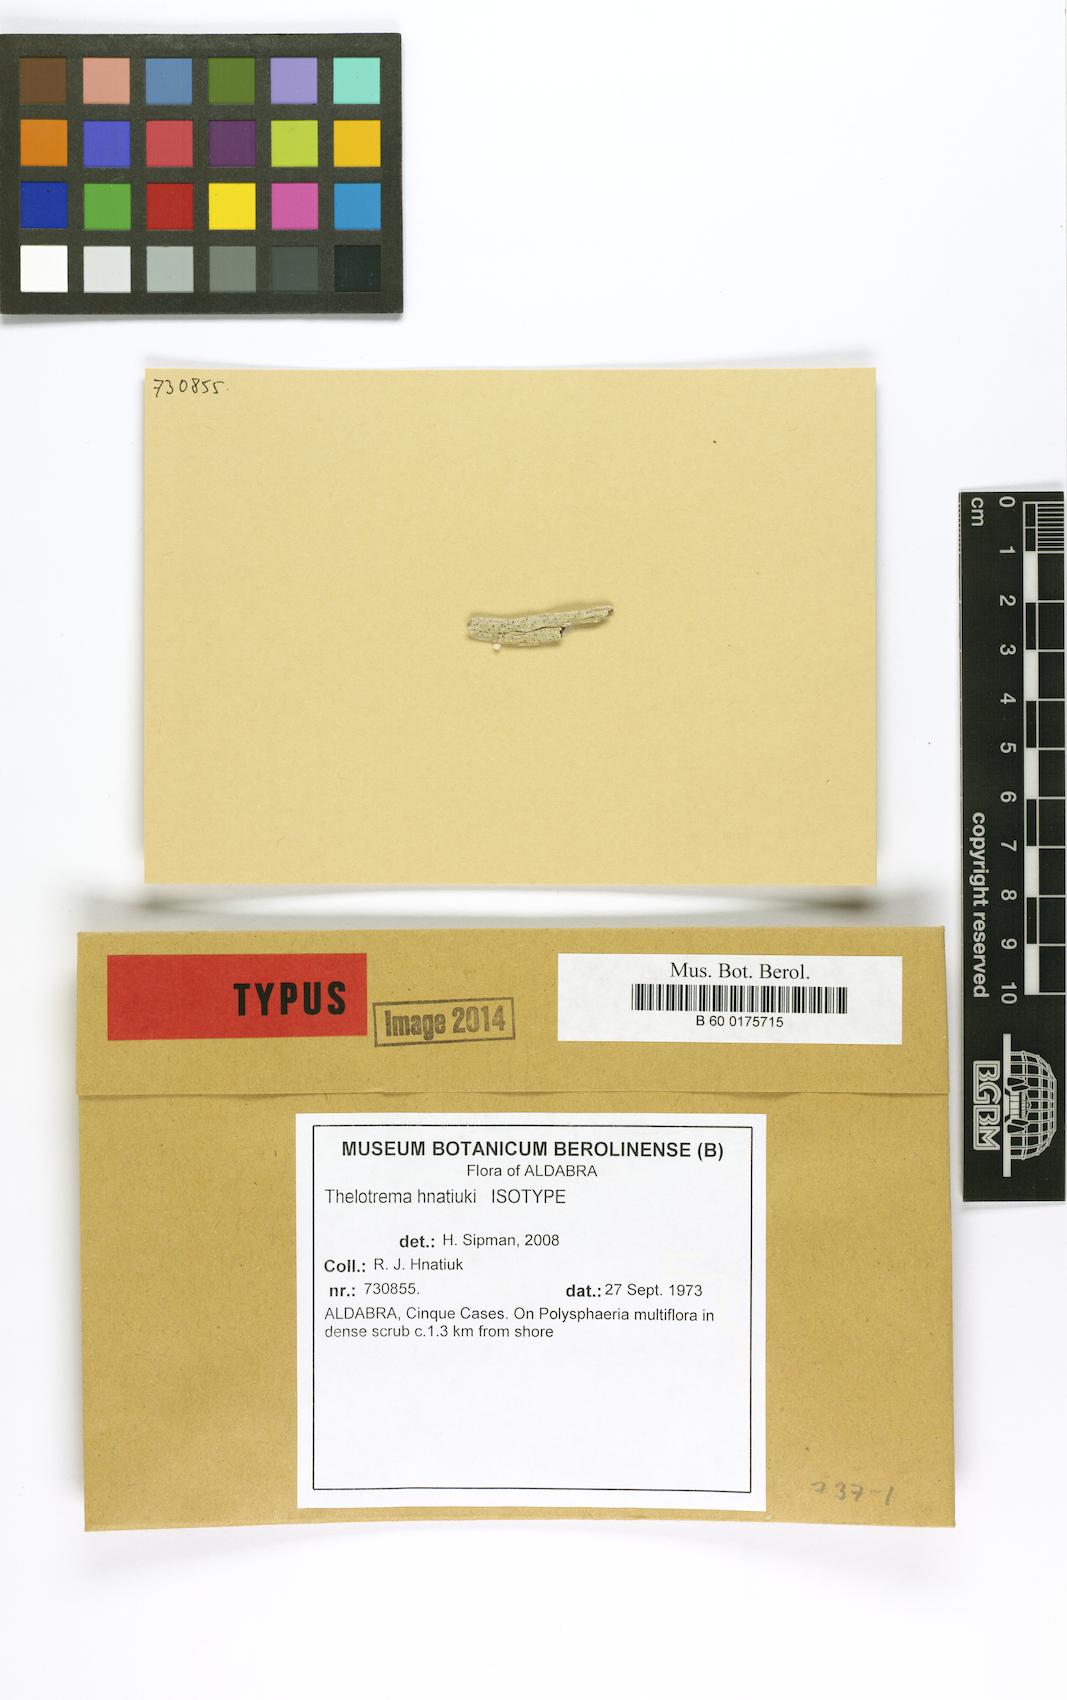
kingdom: Fungi
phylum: Ascomycota
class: Lecanoromycetes
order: Ostropales
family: Graphidaceae
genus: Thelotrema
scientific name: Thelotrema hnatiukii
